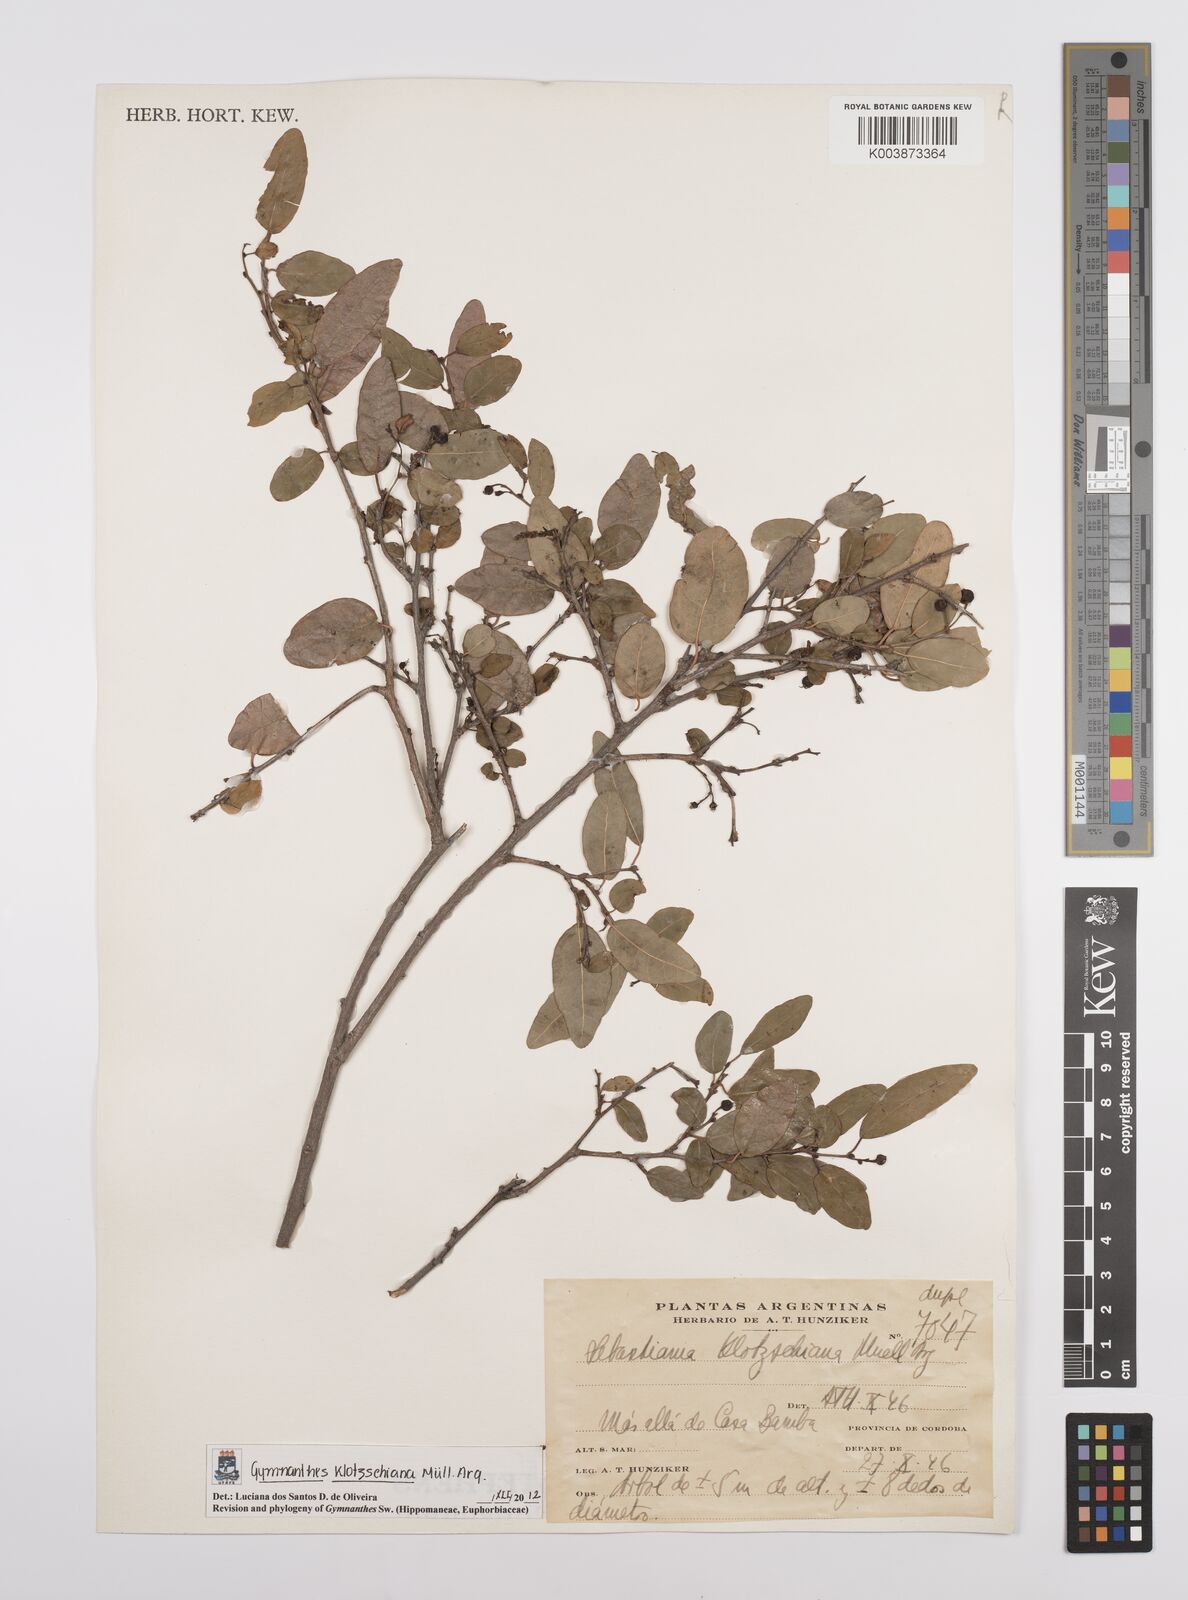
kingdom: Plantae
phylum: Tracheophyta
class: Magnoliopsida
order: Malpighiales
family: Euphorbiaceae
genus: Sebastiania
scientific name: Sebastiania klotzschiana
